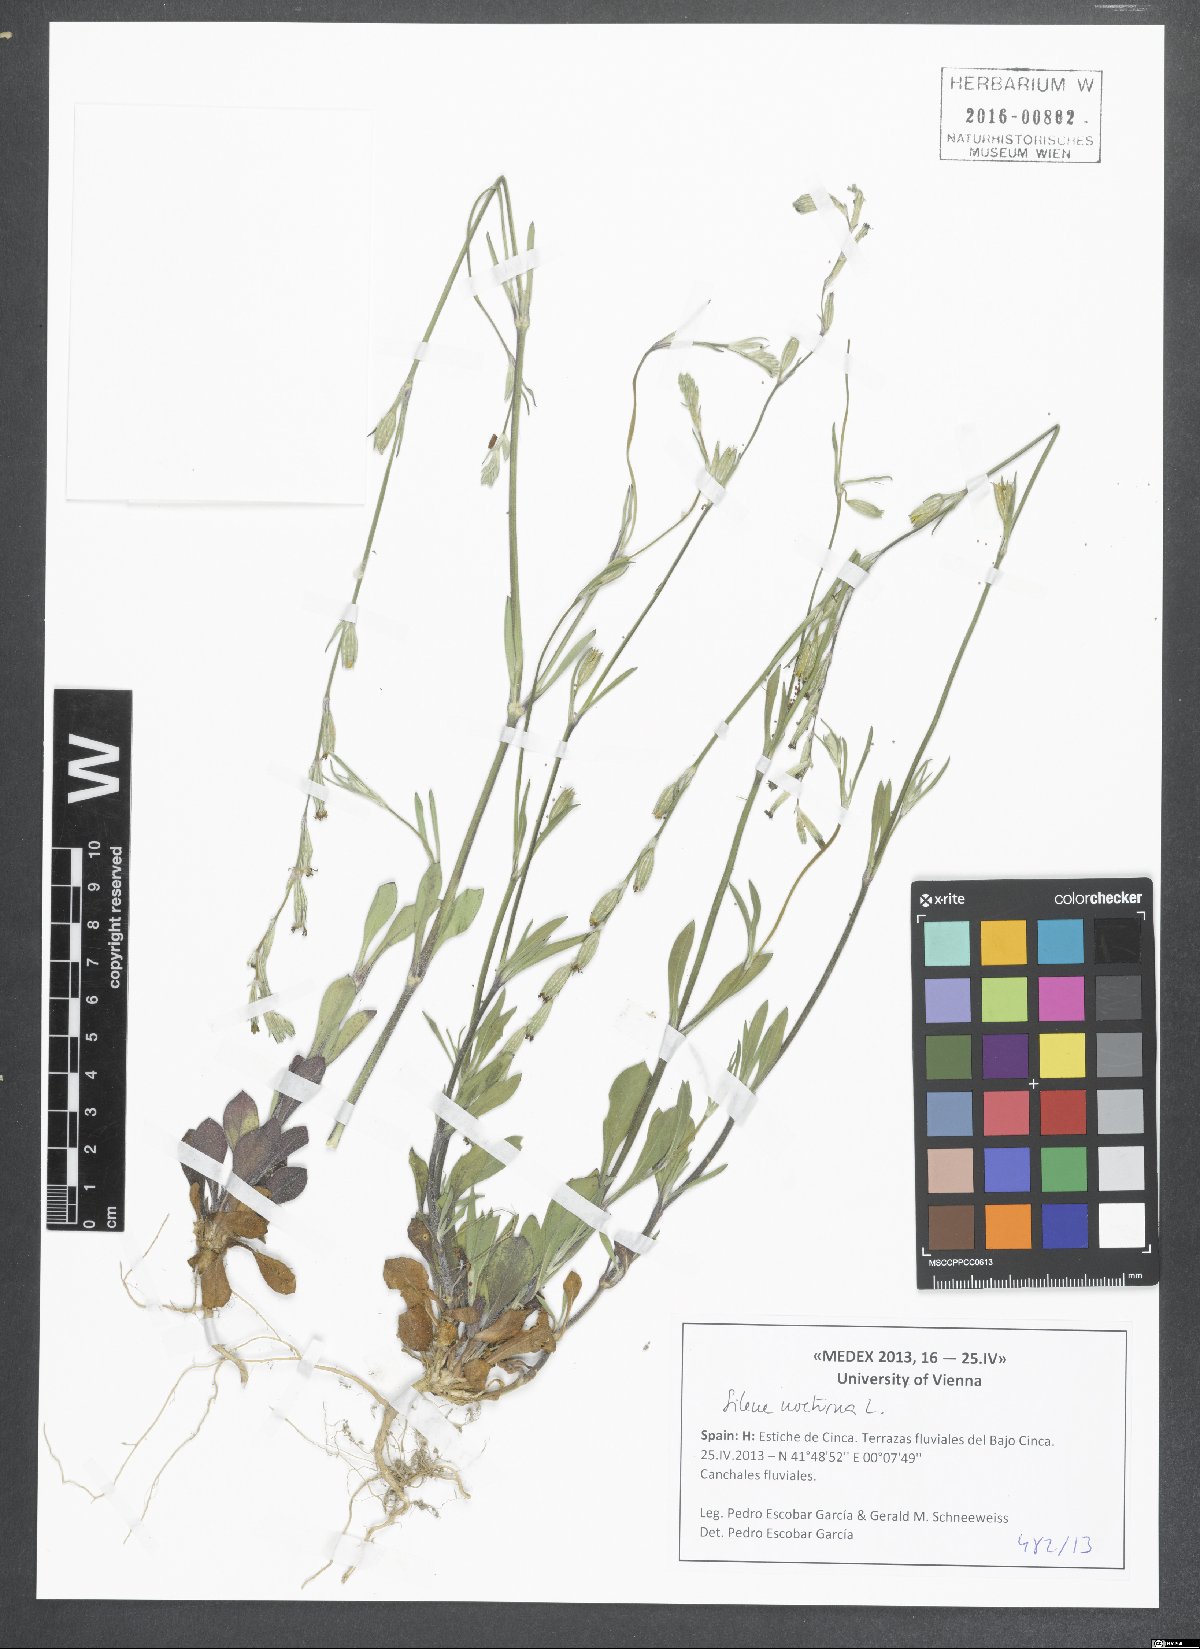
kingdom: Plantae
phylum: Tracheophyta
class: Magnoliopsida
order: Caryophyllales
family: Caryophyllaceae
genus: Silene
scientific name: Silene nocturna
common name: Mediterranean catchfly
